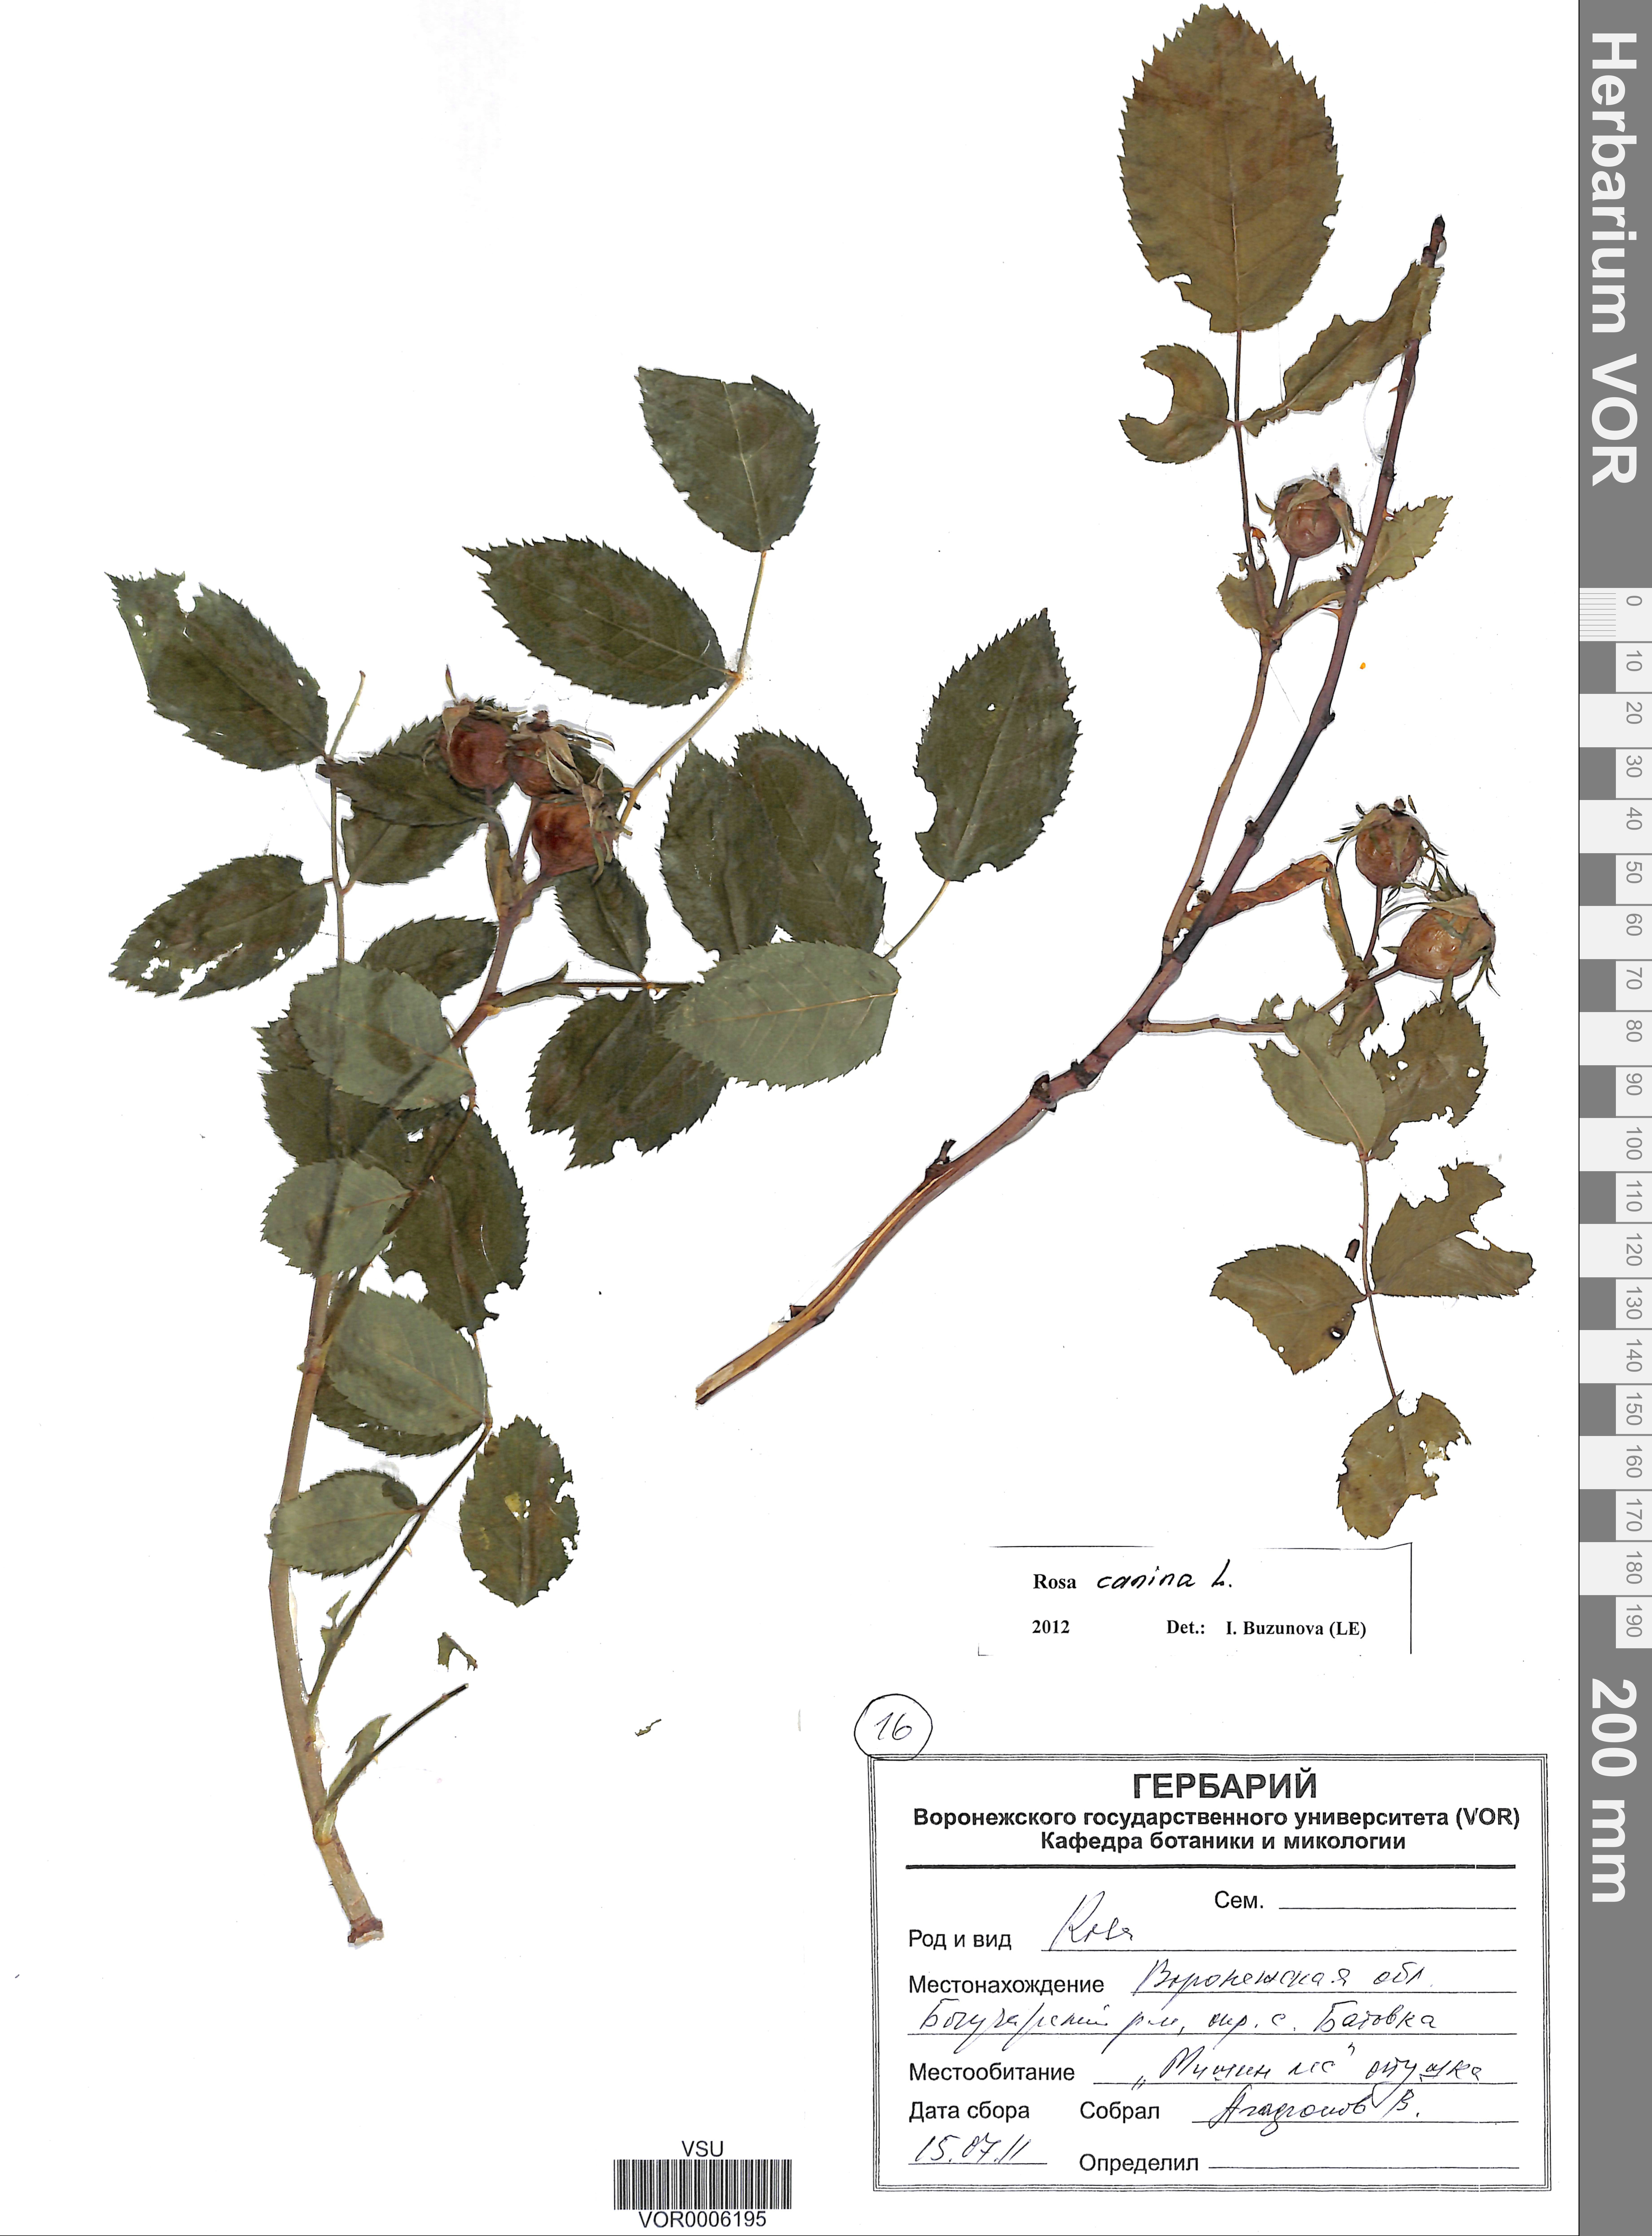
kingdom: Plantae
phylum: Tracheophyta
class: Magnoliopsida
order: Rosales
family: Rosaceae
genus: Rosa
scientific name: Rosa canina
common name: Dog rose
